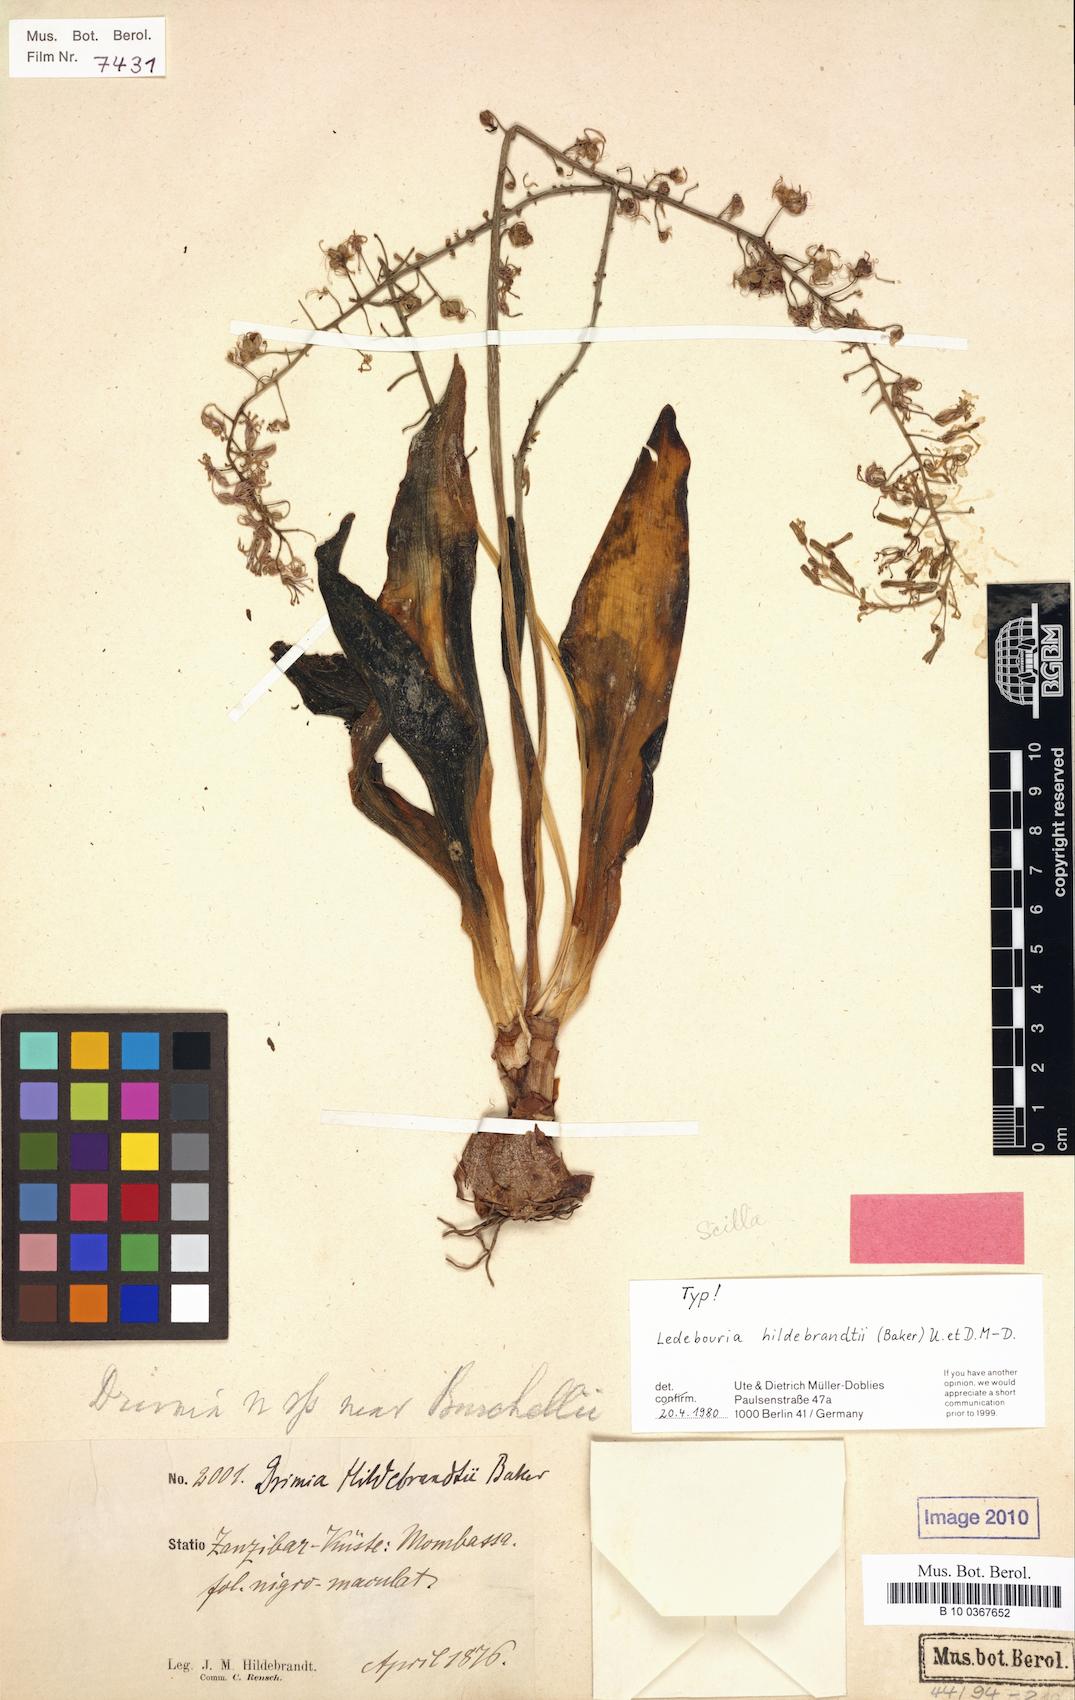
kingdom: Plantae
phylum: Tracheophyta
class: Liliopsida
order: Asparagales
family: Asparagaceae
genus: Ledebouria
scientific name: Ledebouria kirkii
